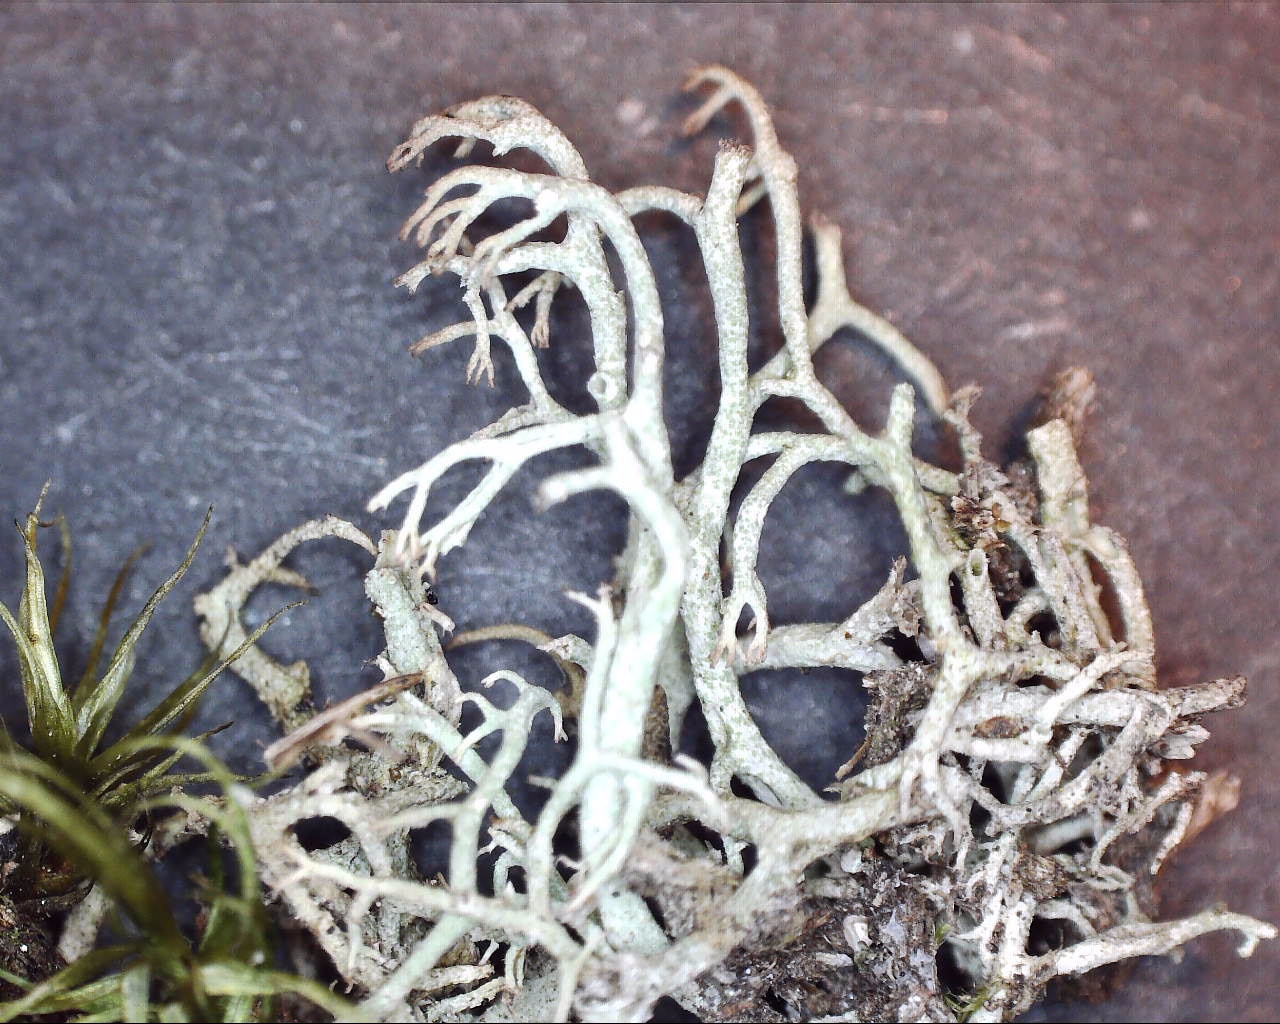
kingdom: Fungi
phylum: Ascomycota
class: Lecanoromycetes
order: Lecanorales
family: Cladoniaceae
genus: Cladonia
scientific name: Cladonia ciliata
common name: spinkel rensdyrlav
